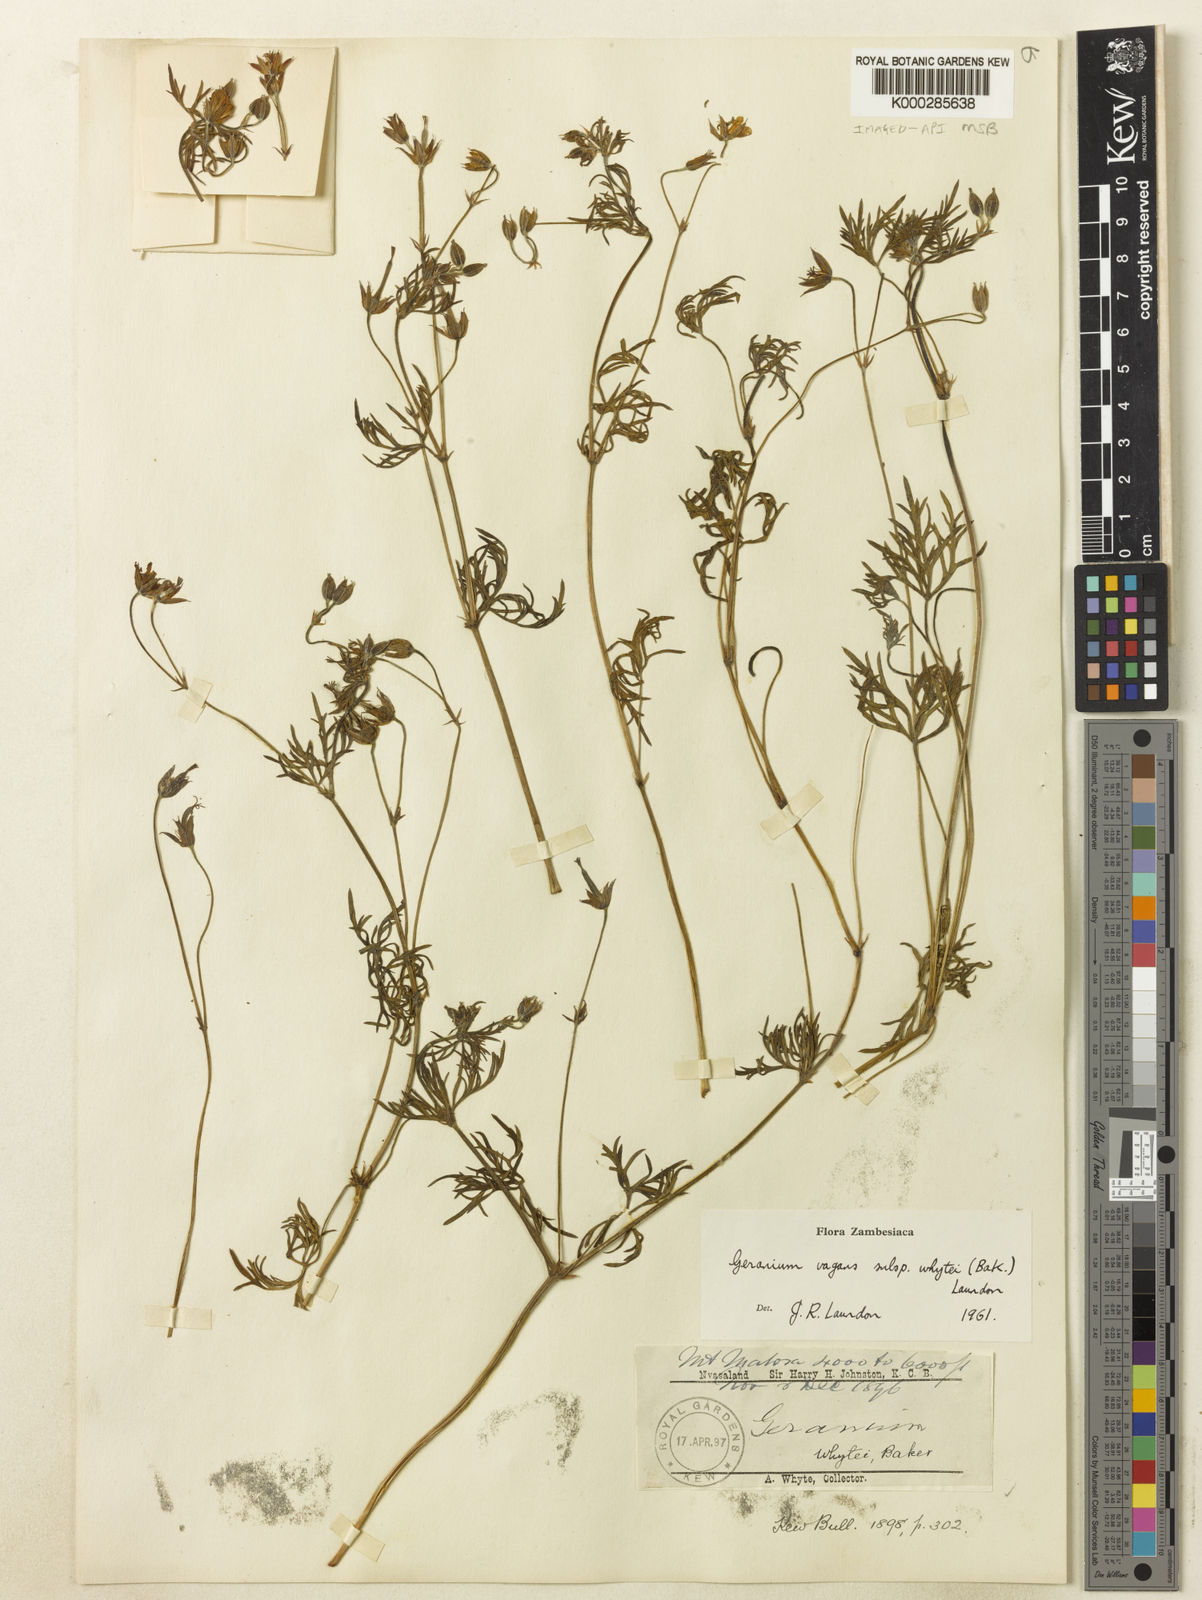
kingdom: Plantae
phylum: Tracheophyta
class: Magnoliopsida
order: Geraniales
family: Geraniaceae
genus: Geranium
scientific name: Geranium vagans
